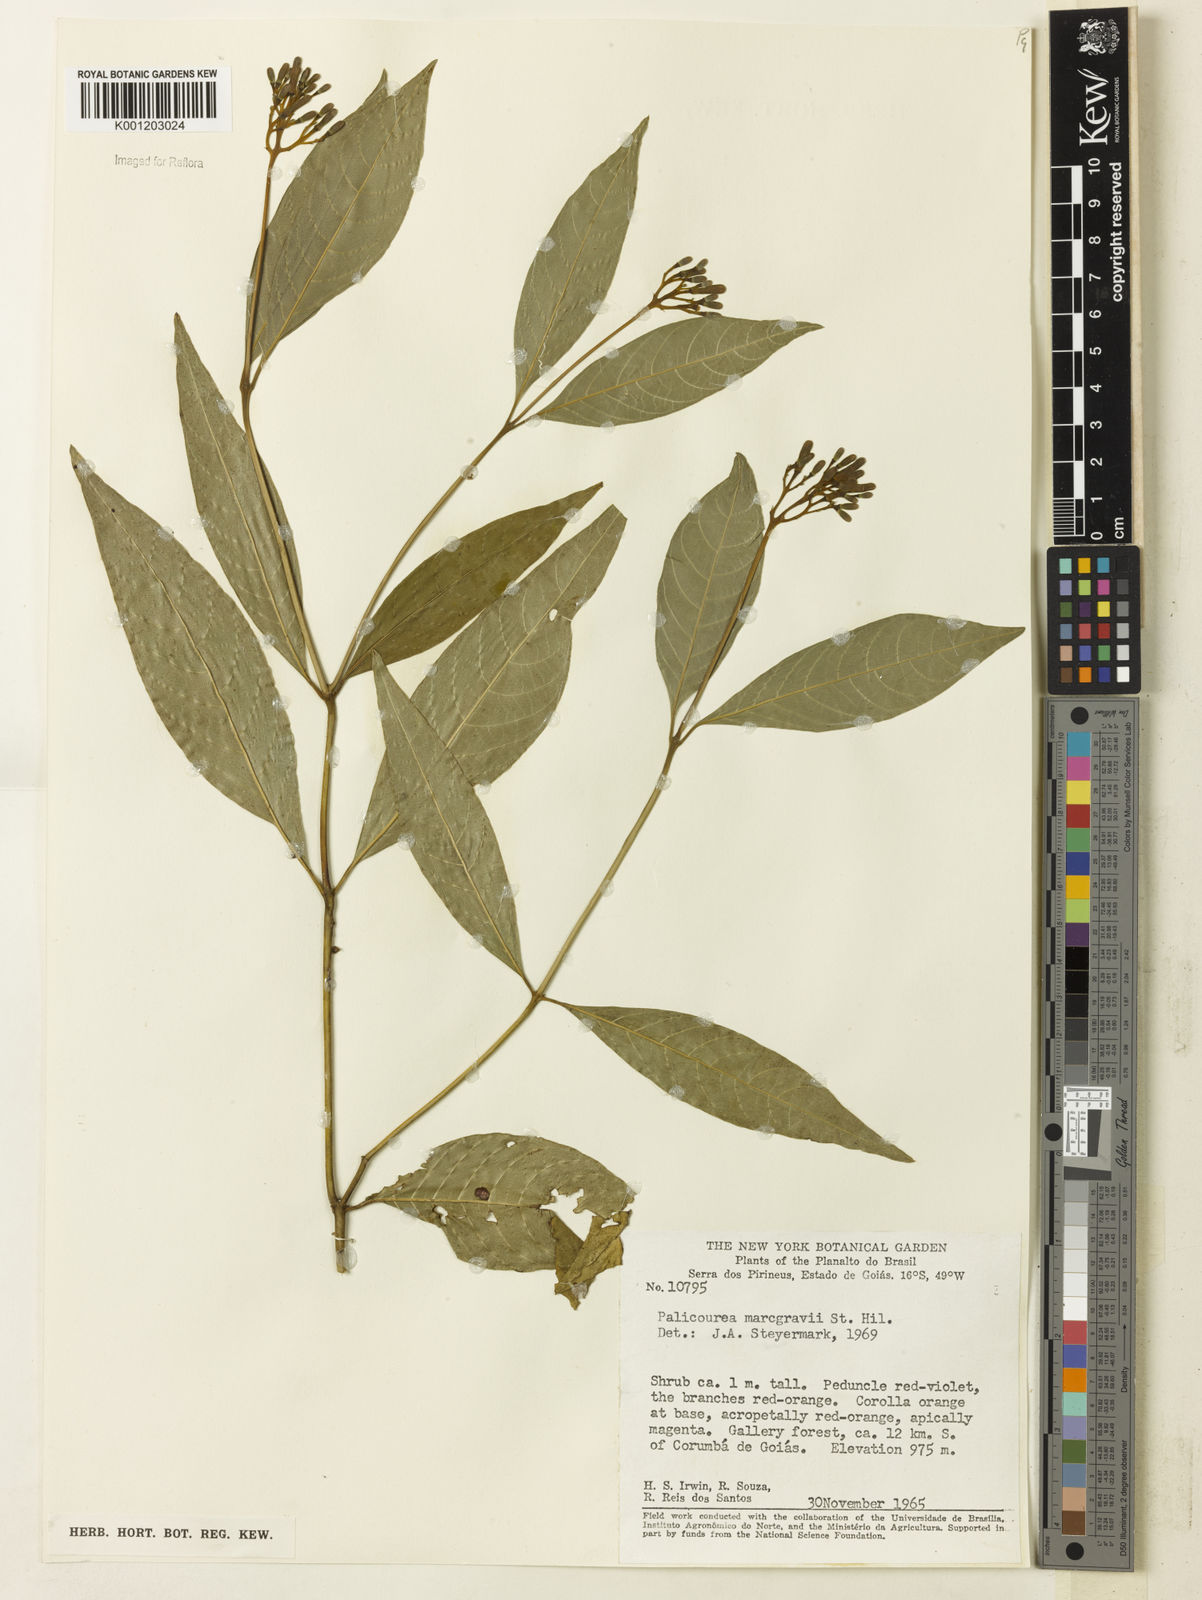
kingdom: Plantae
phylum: Tracheophyta
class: Magnoliopsida
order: Gentianales
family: Rubiaceae
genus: Palicourea
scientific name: Palicourea marcgravii
